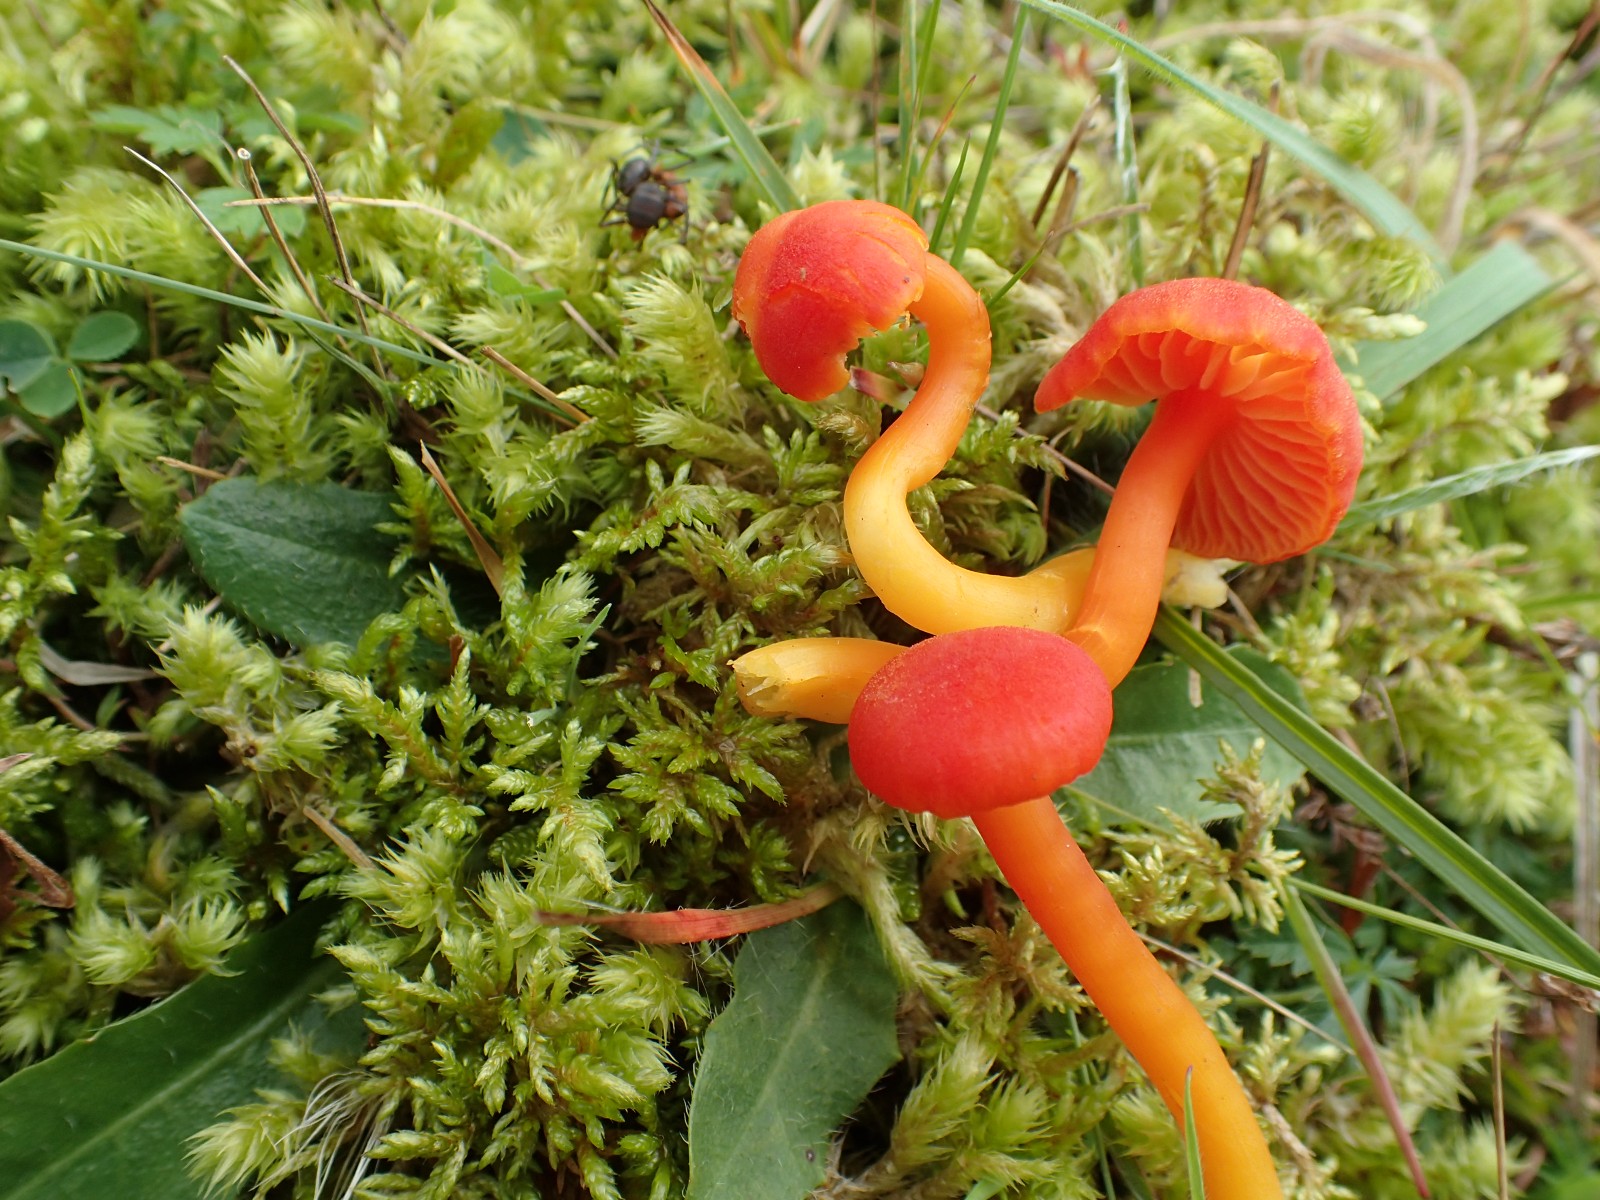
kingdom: Fungi
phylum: Basidiomycota
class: Agaricomycetes
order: Agaricales
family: Hygrophoraceae
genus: Hygrocybe
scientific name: Hygrocybe miniata
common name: mønje-vokshat
